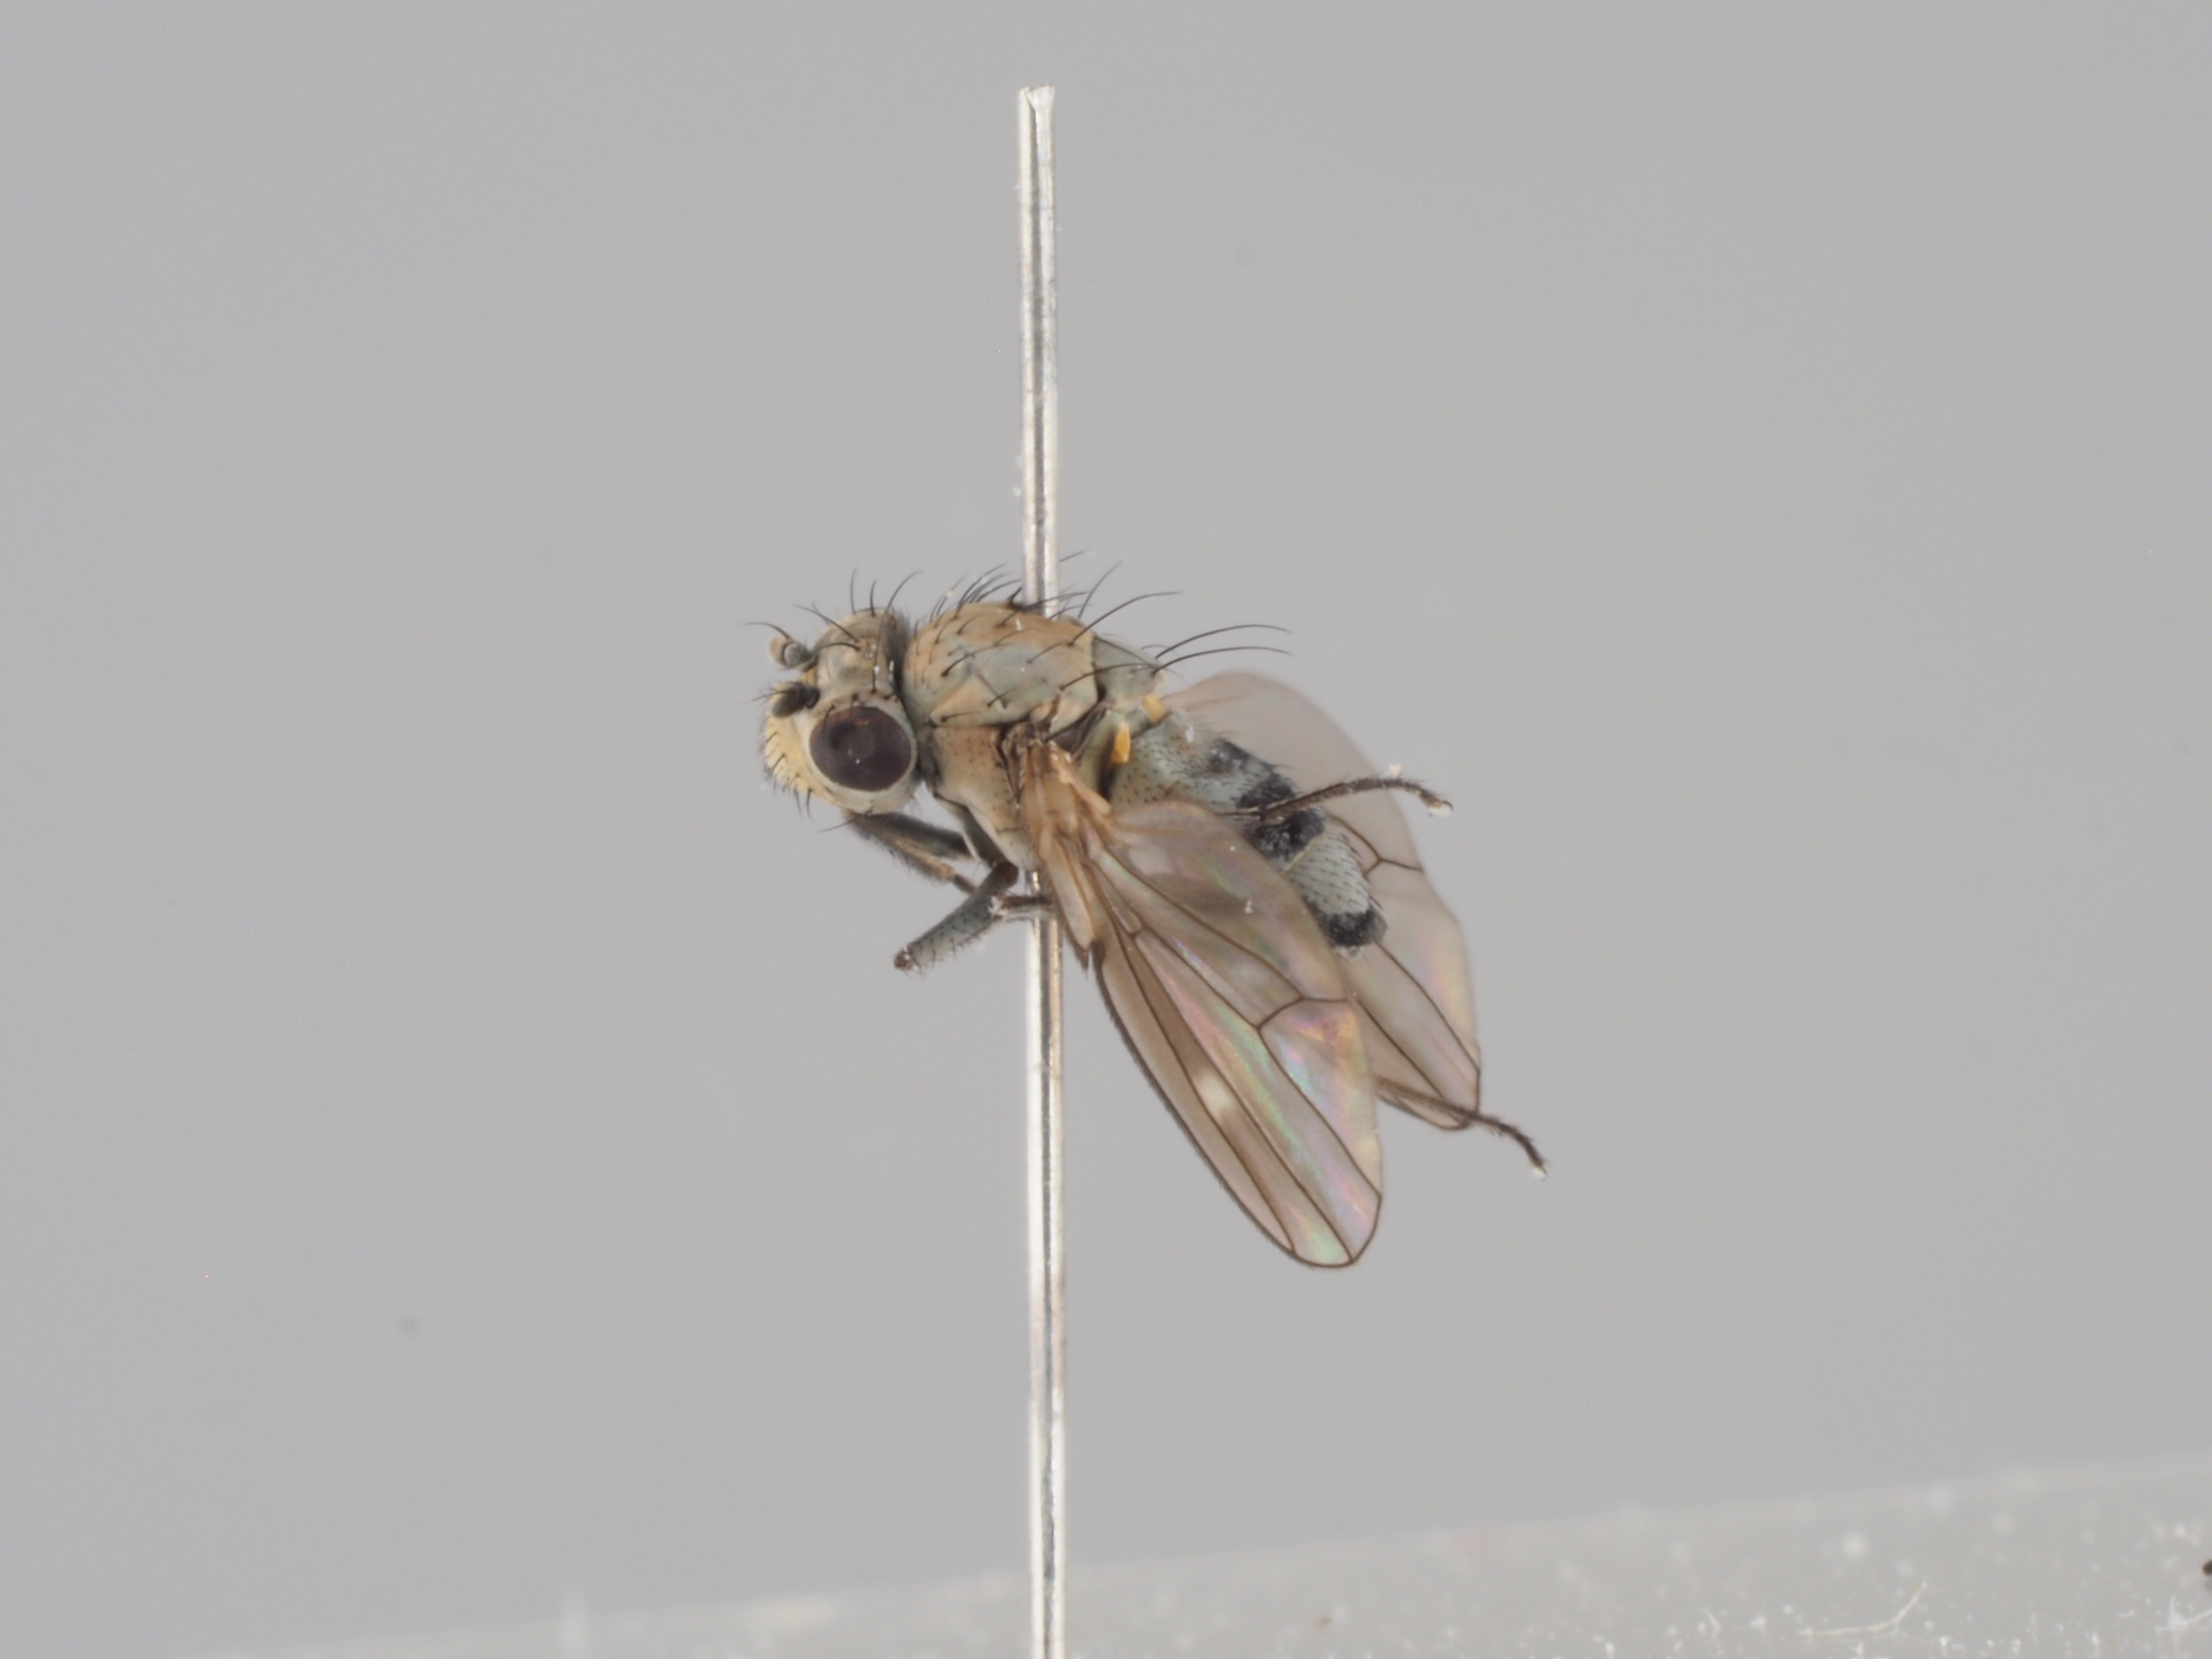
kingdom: Animalia
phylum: Arthropoda
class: Insecta
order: Diptera
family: Ephydridae
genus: Scatella
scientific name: Scatella subguttata
